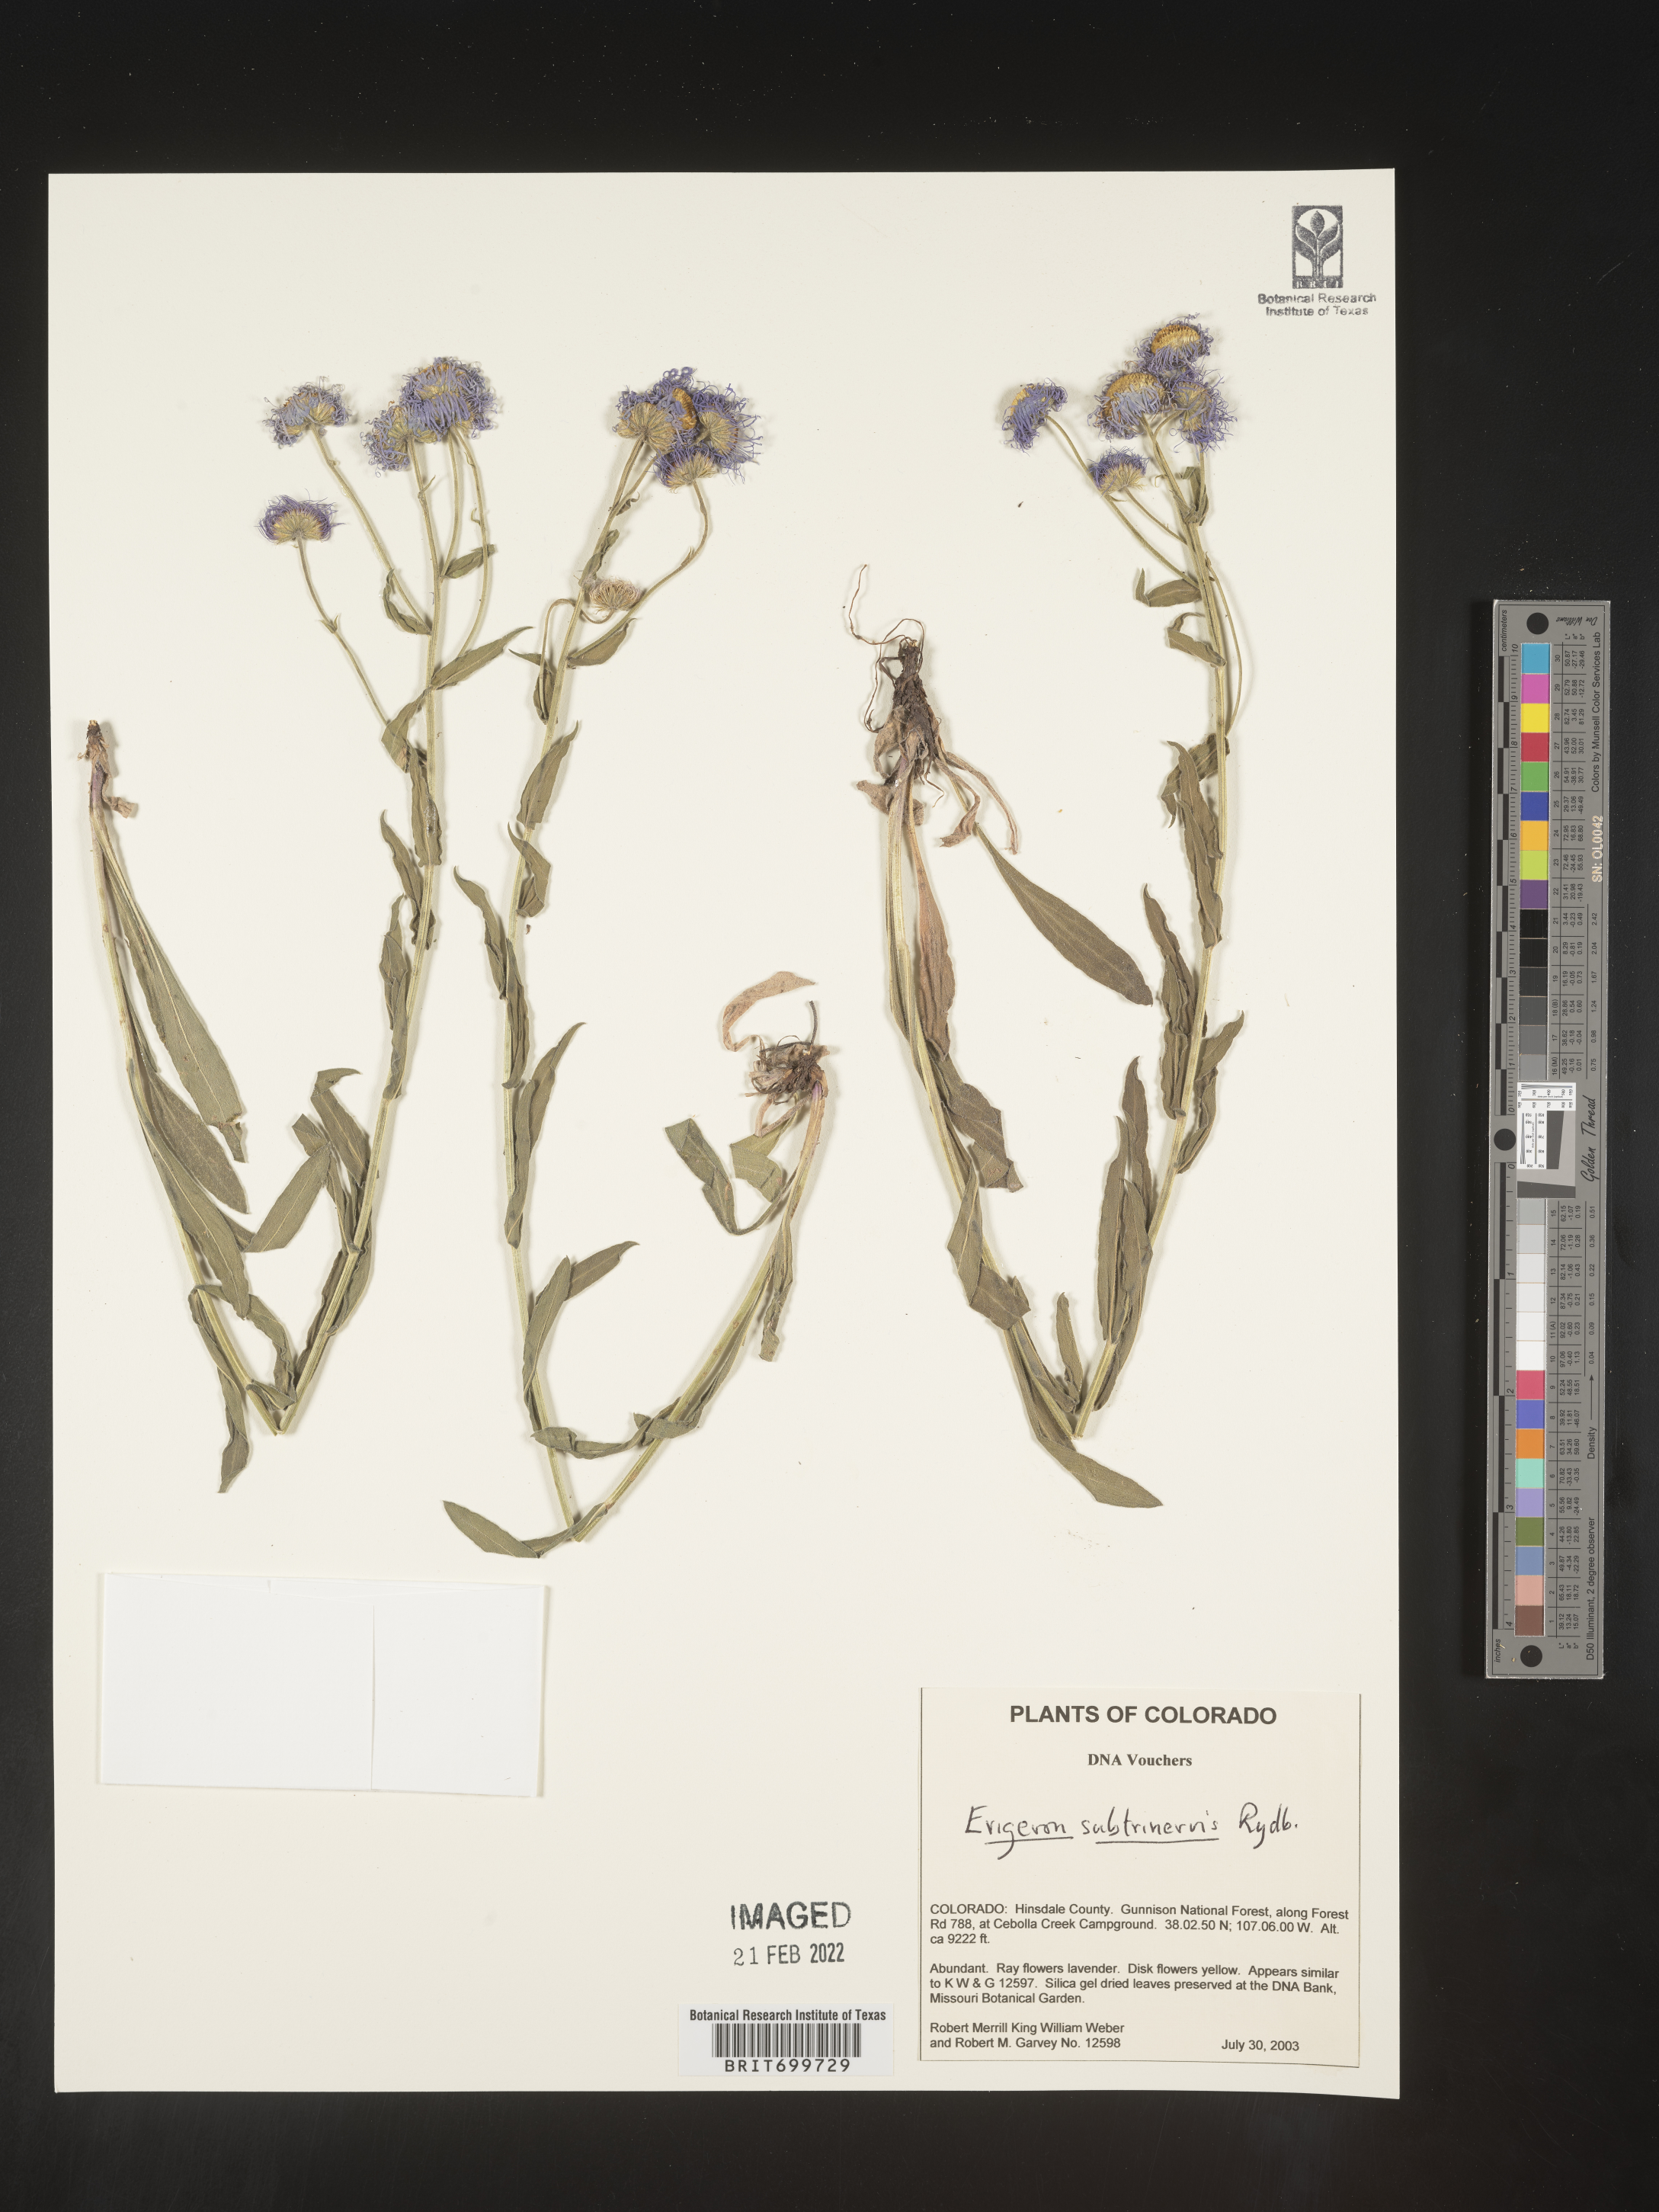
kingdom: Plantae
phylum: Tracheophyta
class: Magnoliopsida
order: Asterales
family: Asteraceae
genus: Erigeron
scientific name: Erigeron subtrinervis
